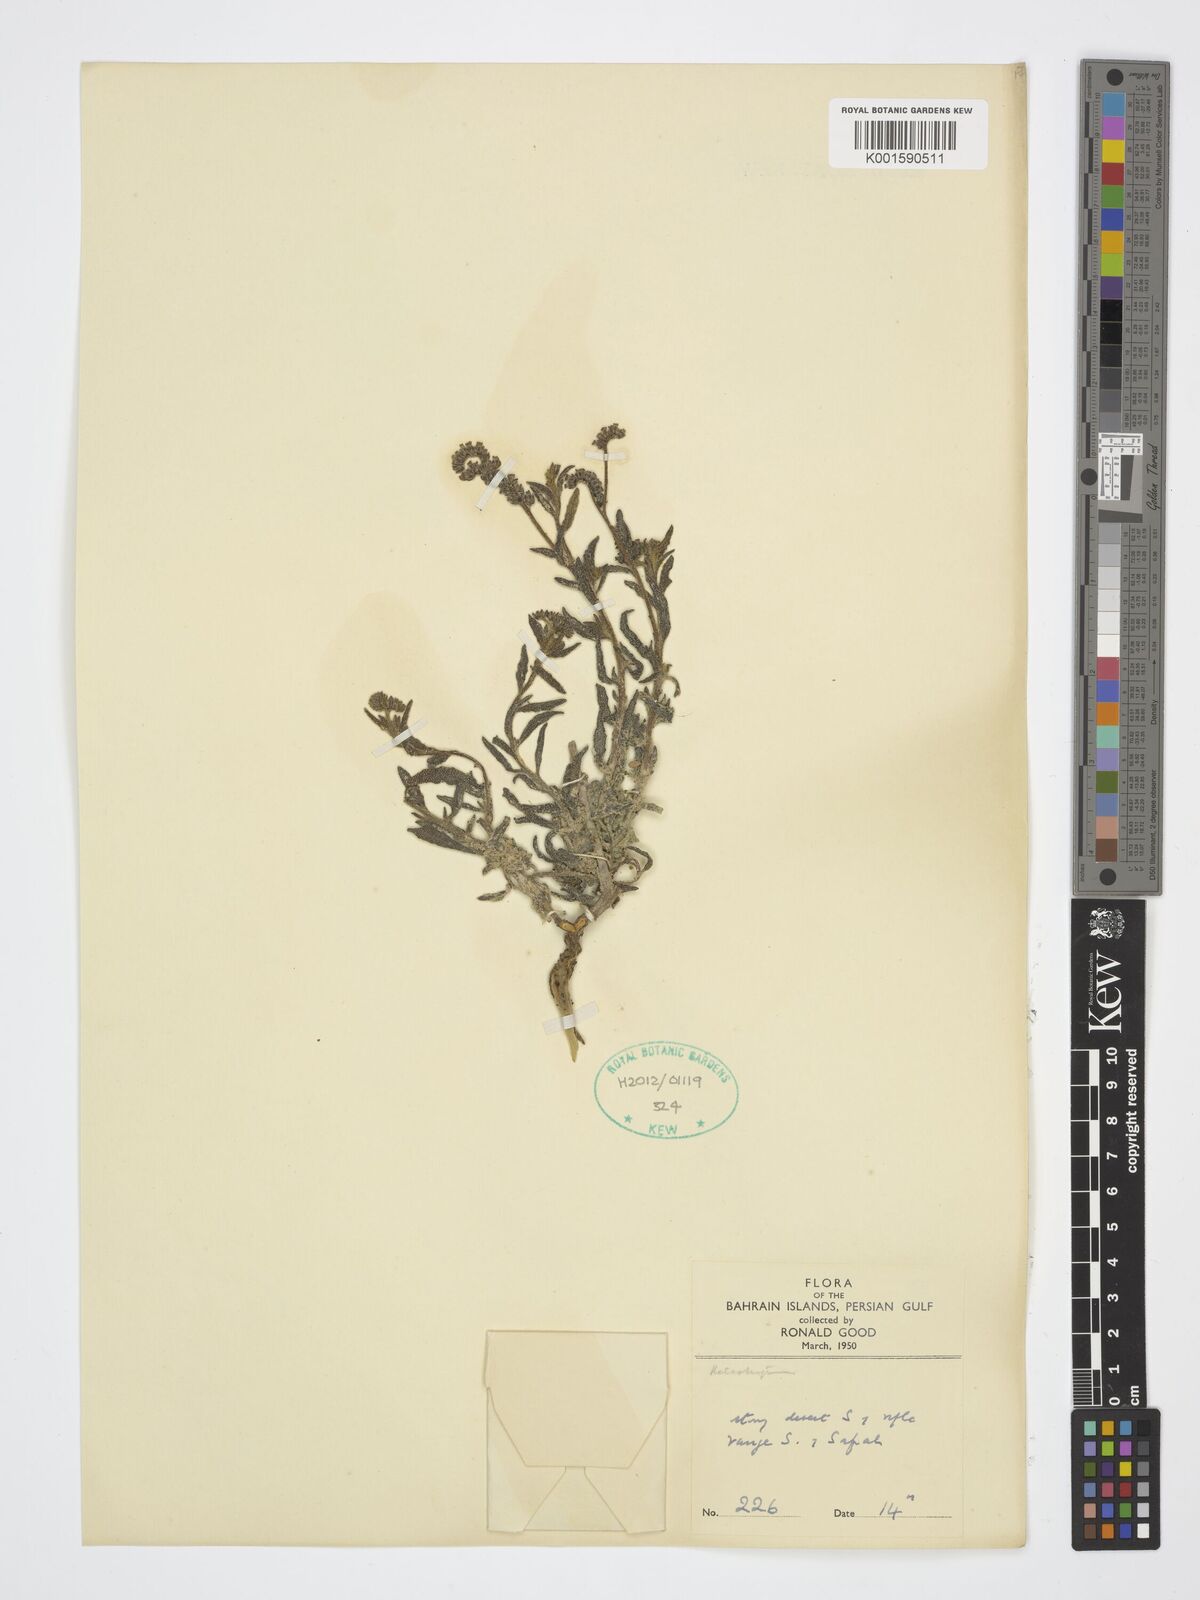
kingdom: Plantae
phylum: Tracheophyta
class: Magnoliopsida
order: Boraginales
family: Heliotropiaceae
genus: Heliotropium
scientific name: Heliotropium
